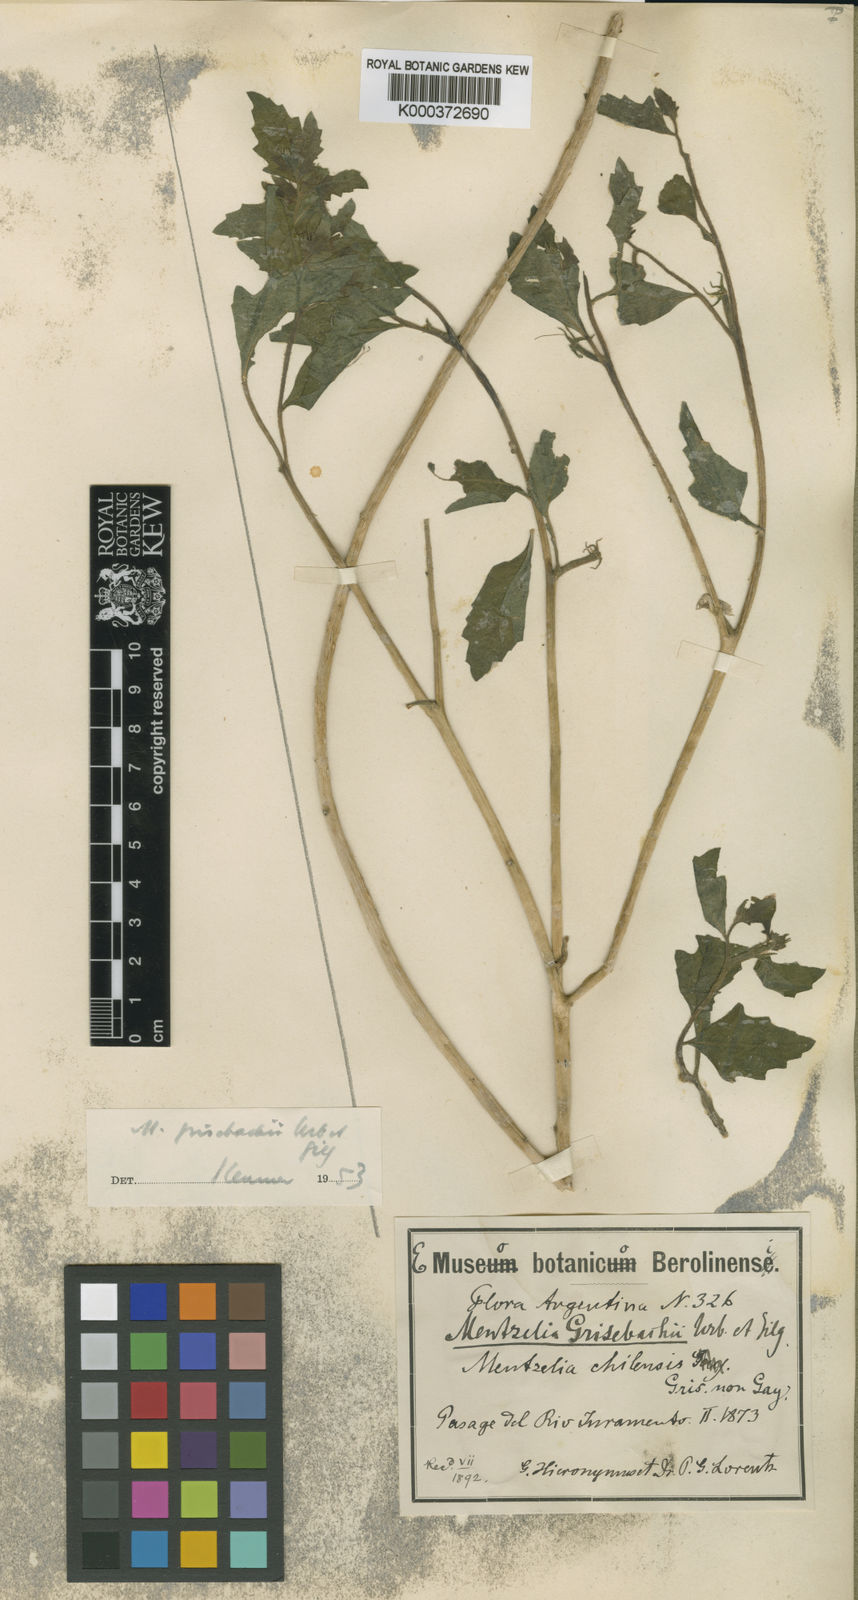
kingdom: Plantae
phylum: Tracheophyta
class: Magnoliopsida
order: Cornales
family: Loasaceae
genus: Mentzelia
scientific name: Mentzelia parvifolia
